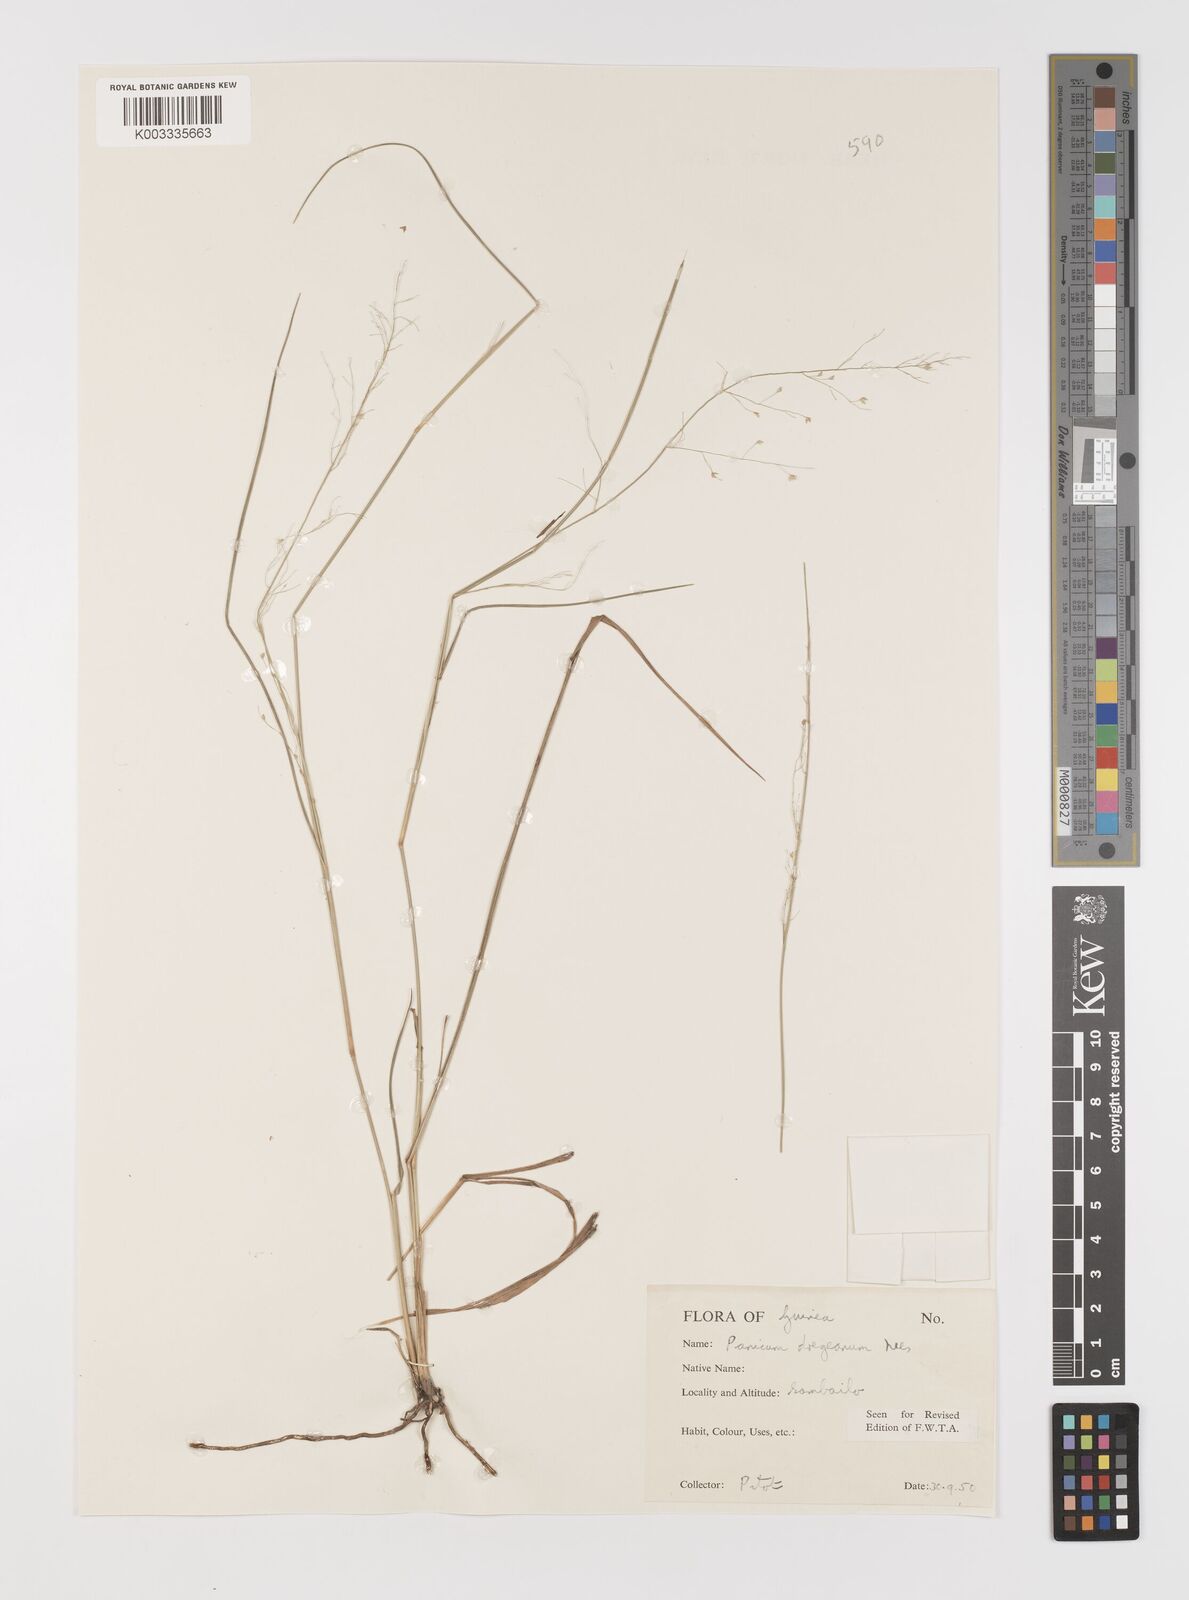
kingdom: Plantae
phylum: Tracheophyta
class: Liliopsida
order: Poales
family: Poaceae
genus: Panicum
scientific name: Panicum dregeanum
